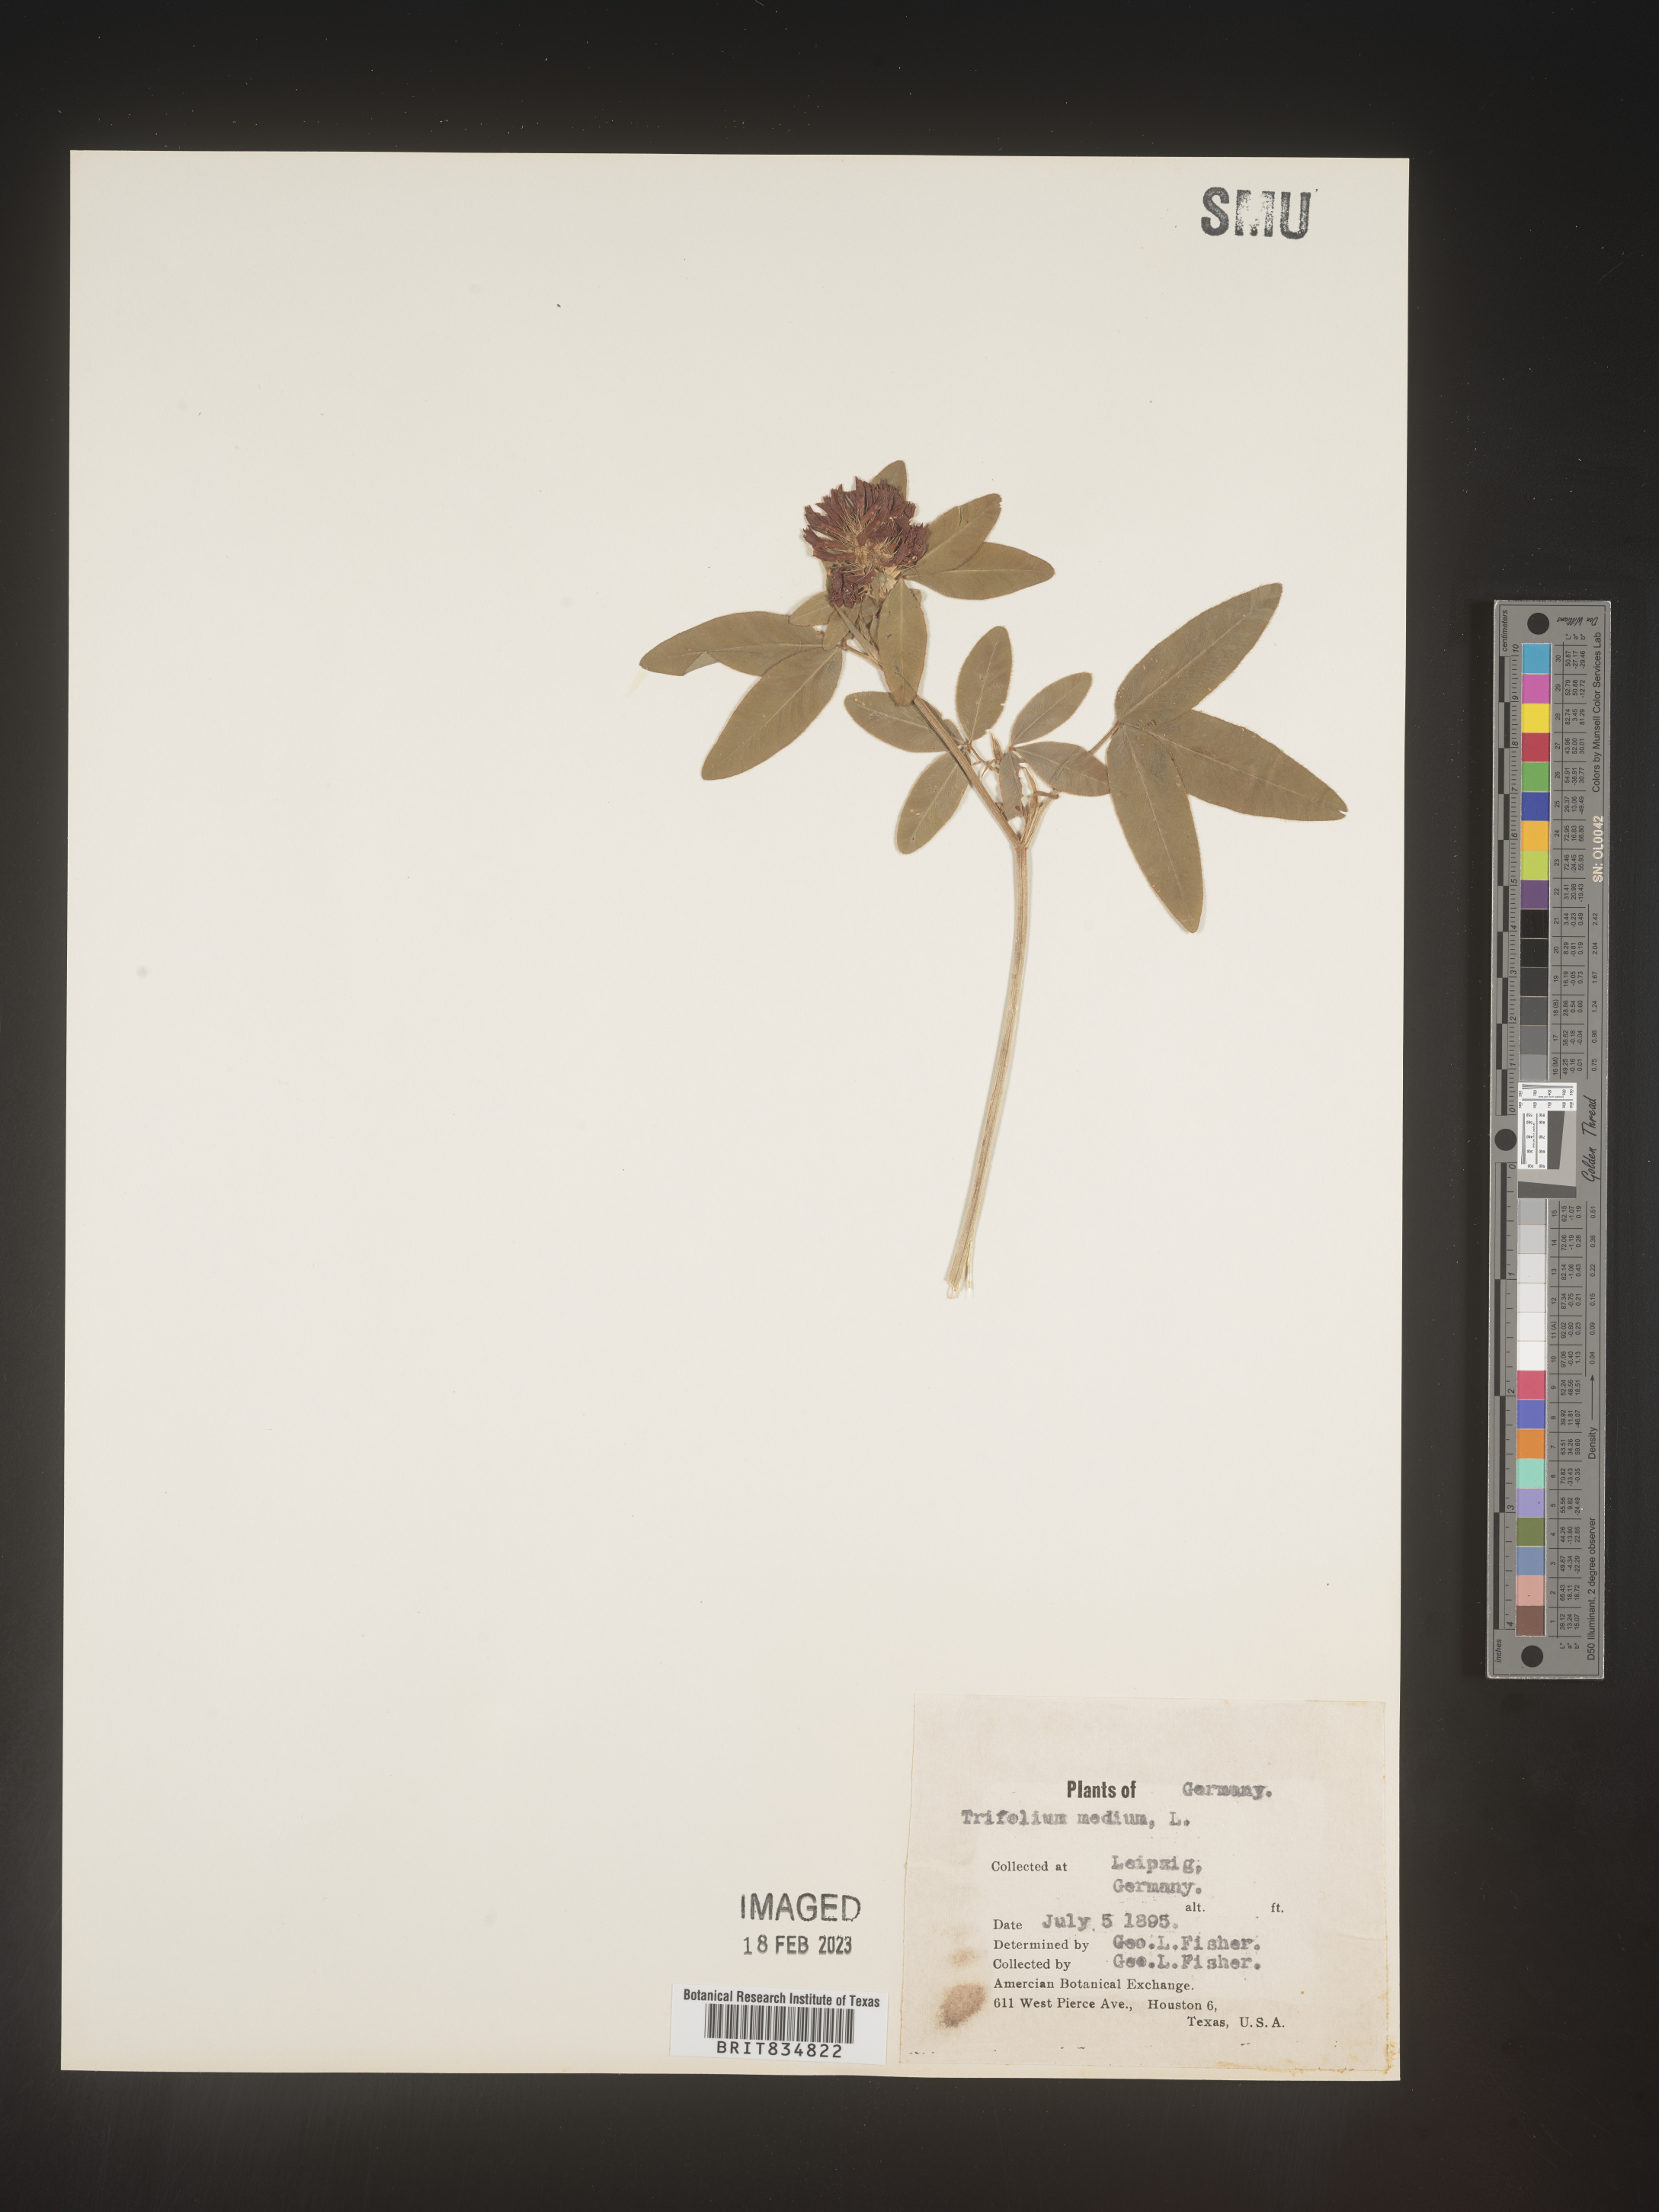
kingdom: Plantae
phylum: Tracheophyta
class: Magnoliopsida
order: Fabales
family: Fabaceae
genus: Trifolium
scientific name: Trifolium
